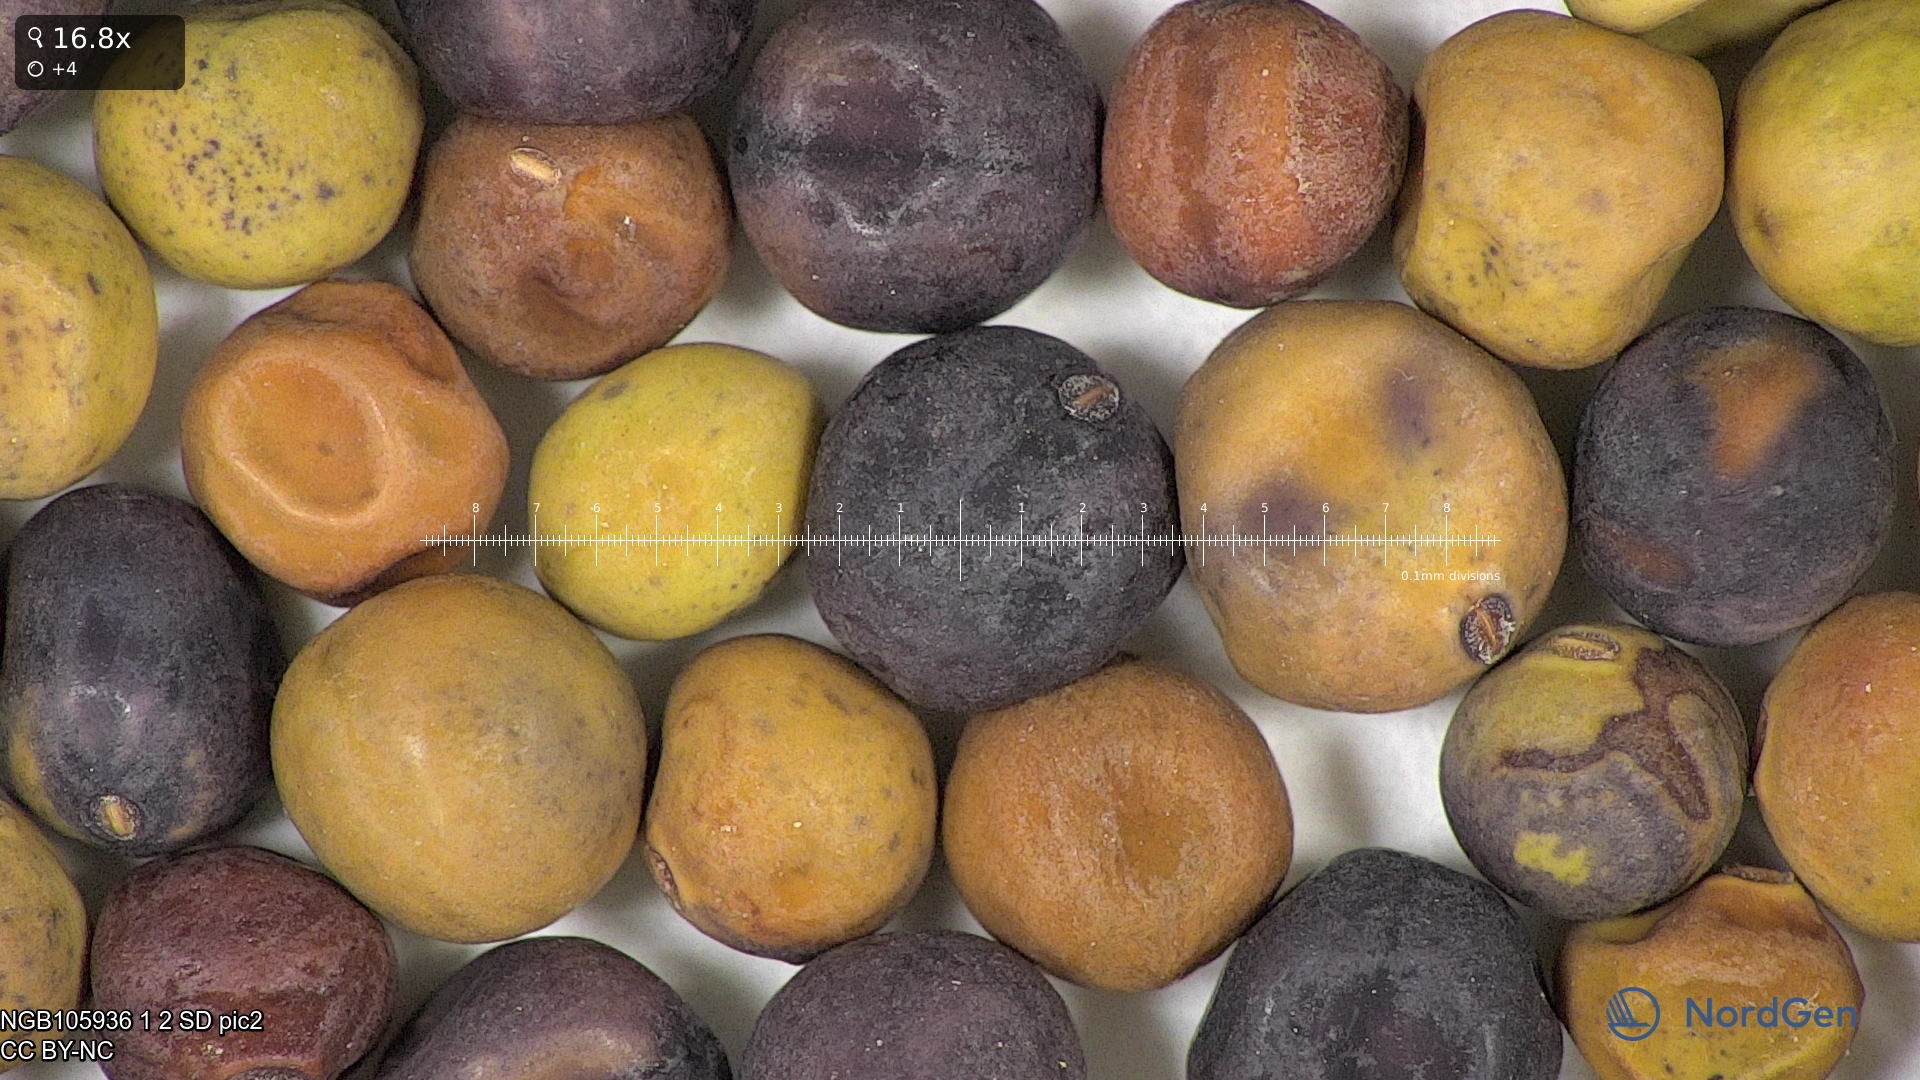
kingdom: Plantae
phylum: Tracheophyta
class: Magnoliopsida
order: Fabales
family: Fabaceae
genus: Lathyrus
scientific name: Lathyrus oleraceus
